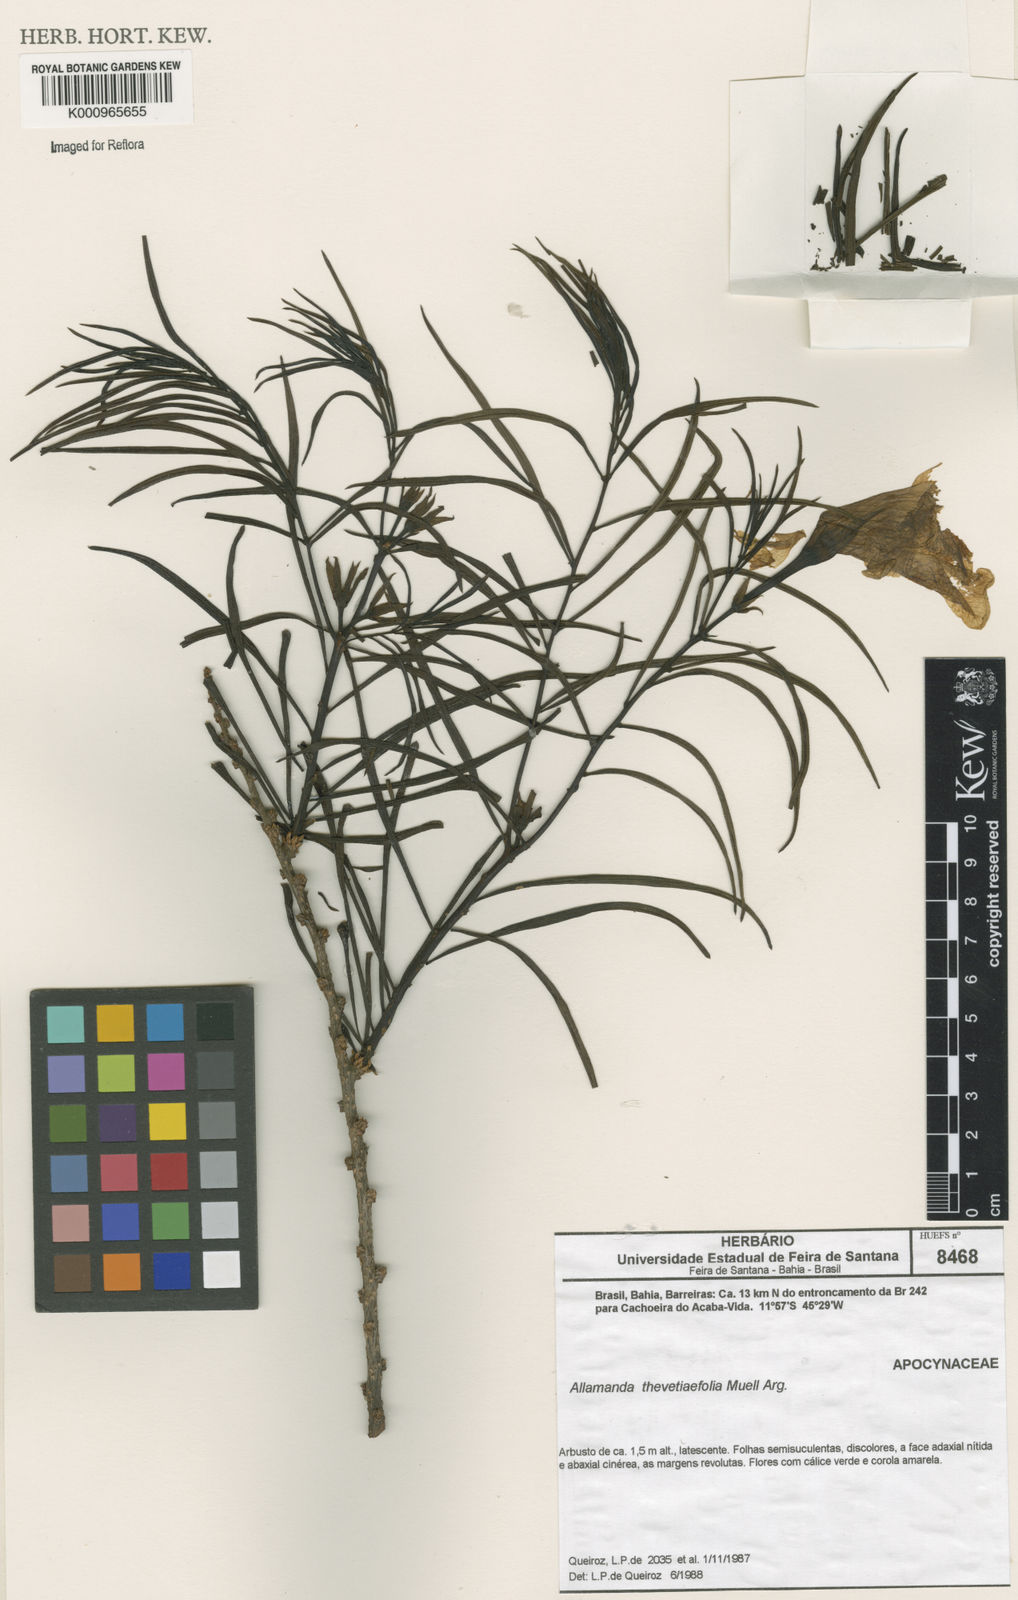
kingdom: Plantae
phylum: Tracheophyta
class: Magnoliopsida
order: Gentianales
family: Apocynaceae
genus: Allamanda
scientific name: Allamanda
